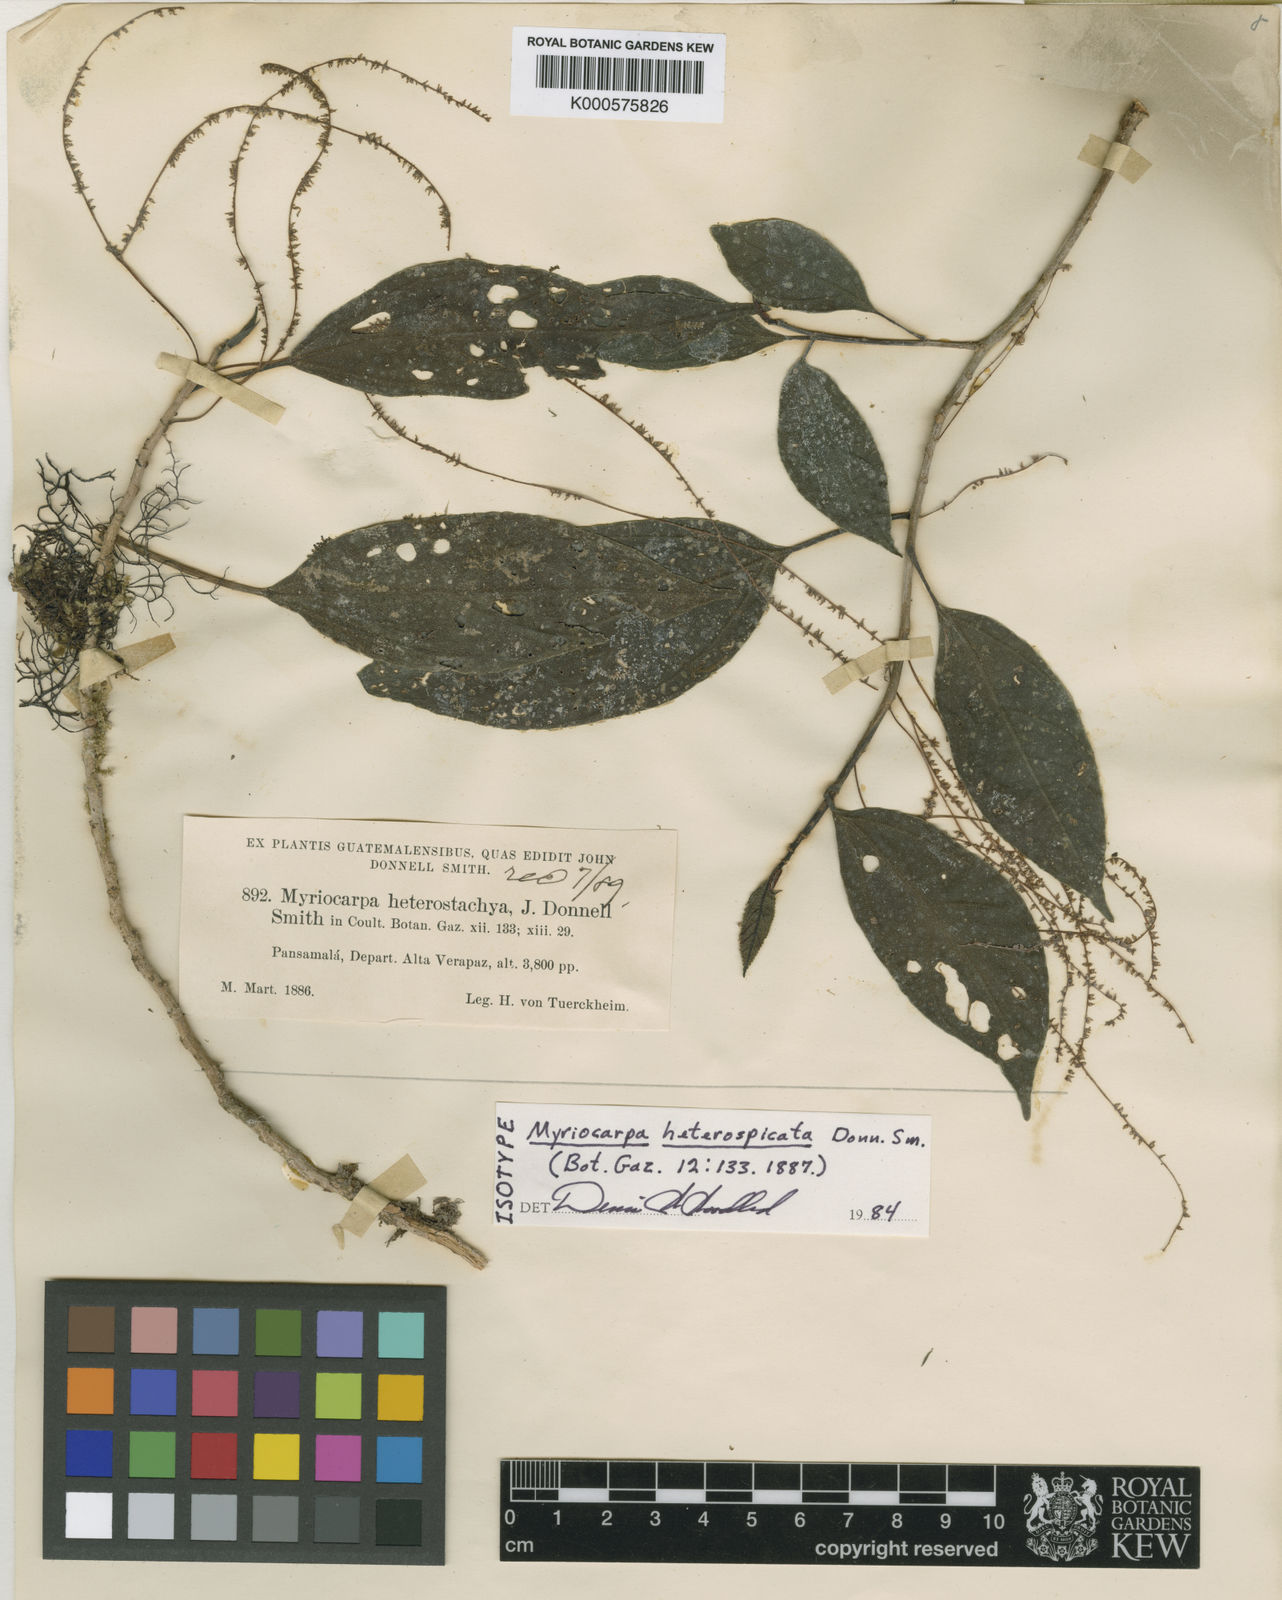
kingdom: Plantae
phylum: Tracheophyta
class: Magnoliopsida
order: Rosales
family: Urticaceae
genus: Myriocarpa
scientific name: Myriocarpa heterospicata
